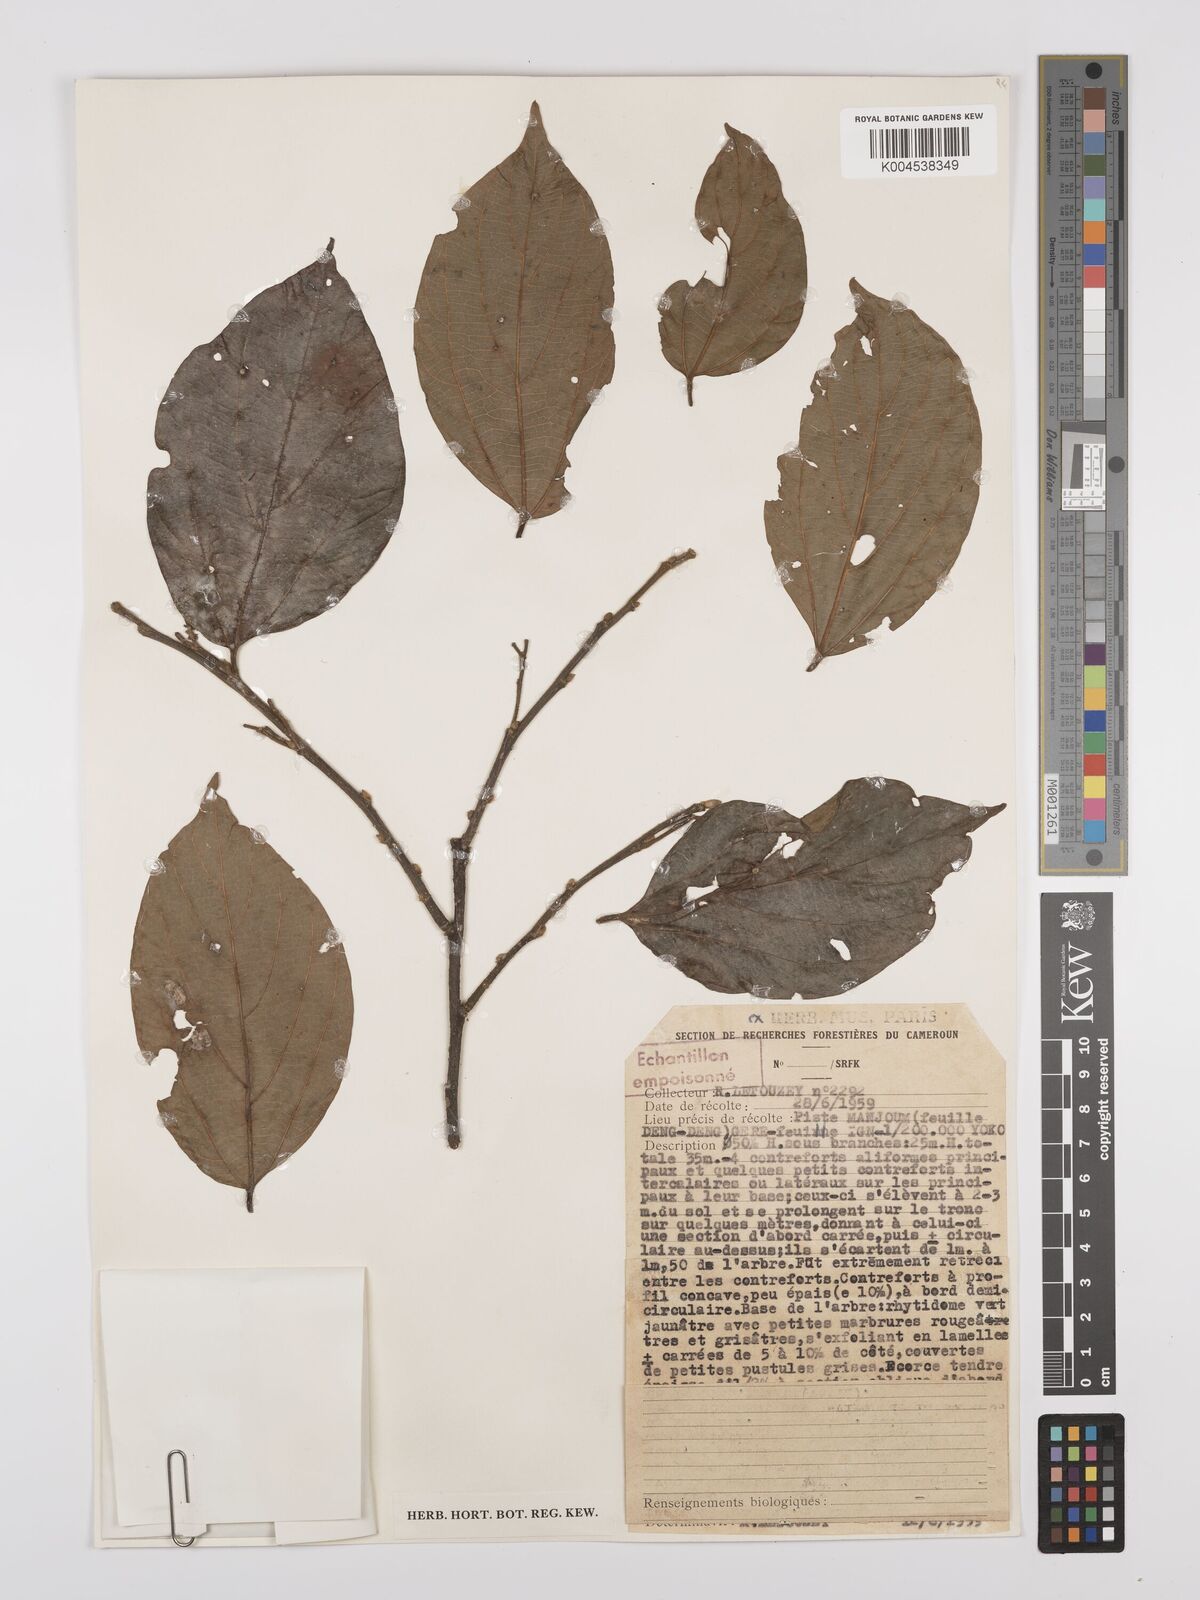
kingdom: Plantae
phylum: Tracheophyta
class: Magnoliopsida
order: Rosales
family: Cannabaceae
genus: Celtis
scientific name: Celtis zenkeri
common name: African celtis
